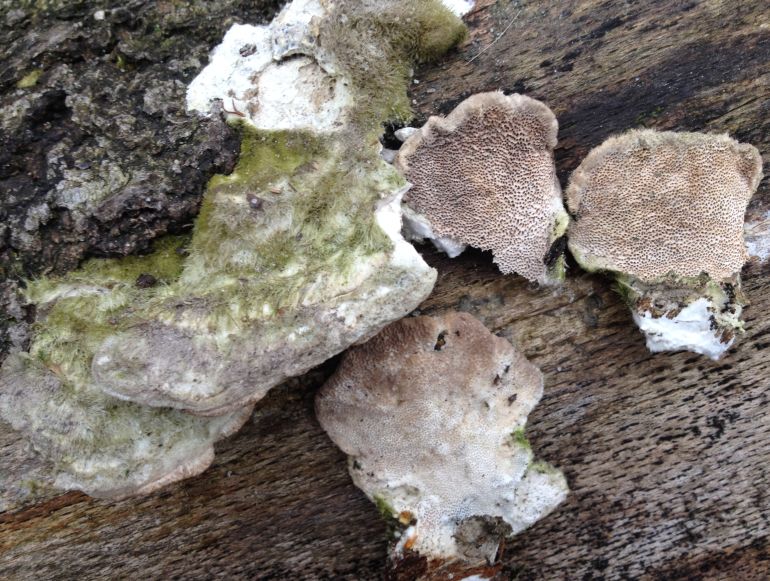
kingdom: Fungi
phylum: Basidiomycota
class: Agaricomycetes
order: Polyporales
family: Polyporaceae
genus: Trametes
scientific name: Trametes hirsuta
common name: håret læderporesvamp
